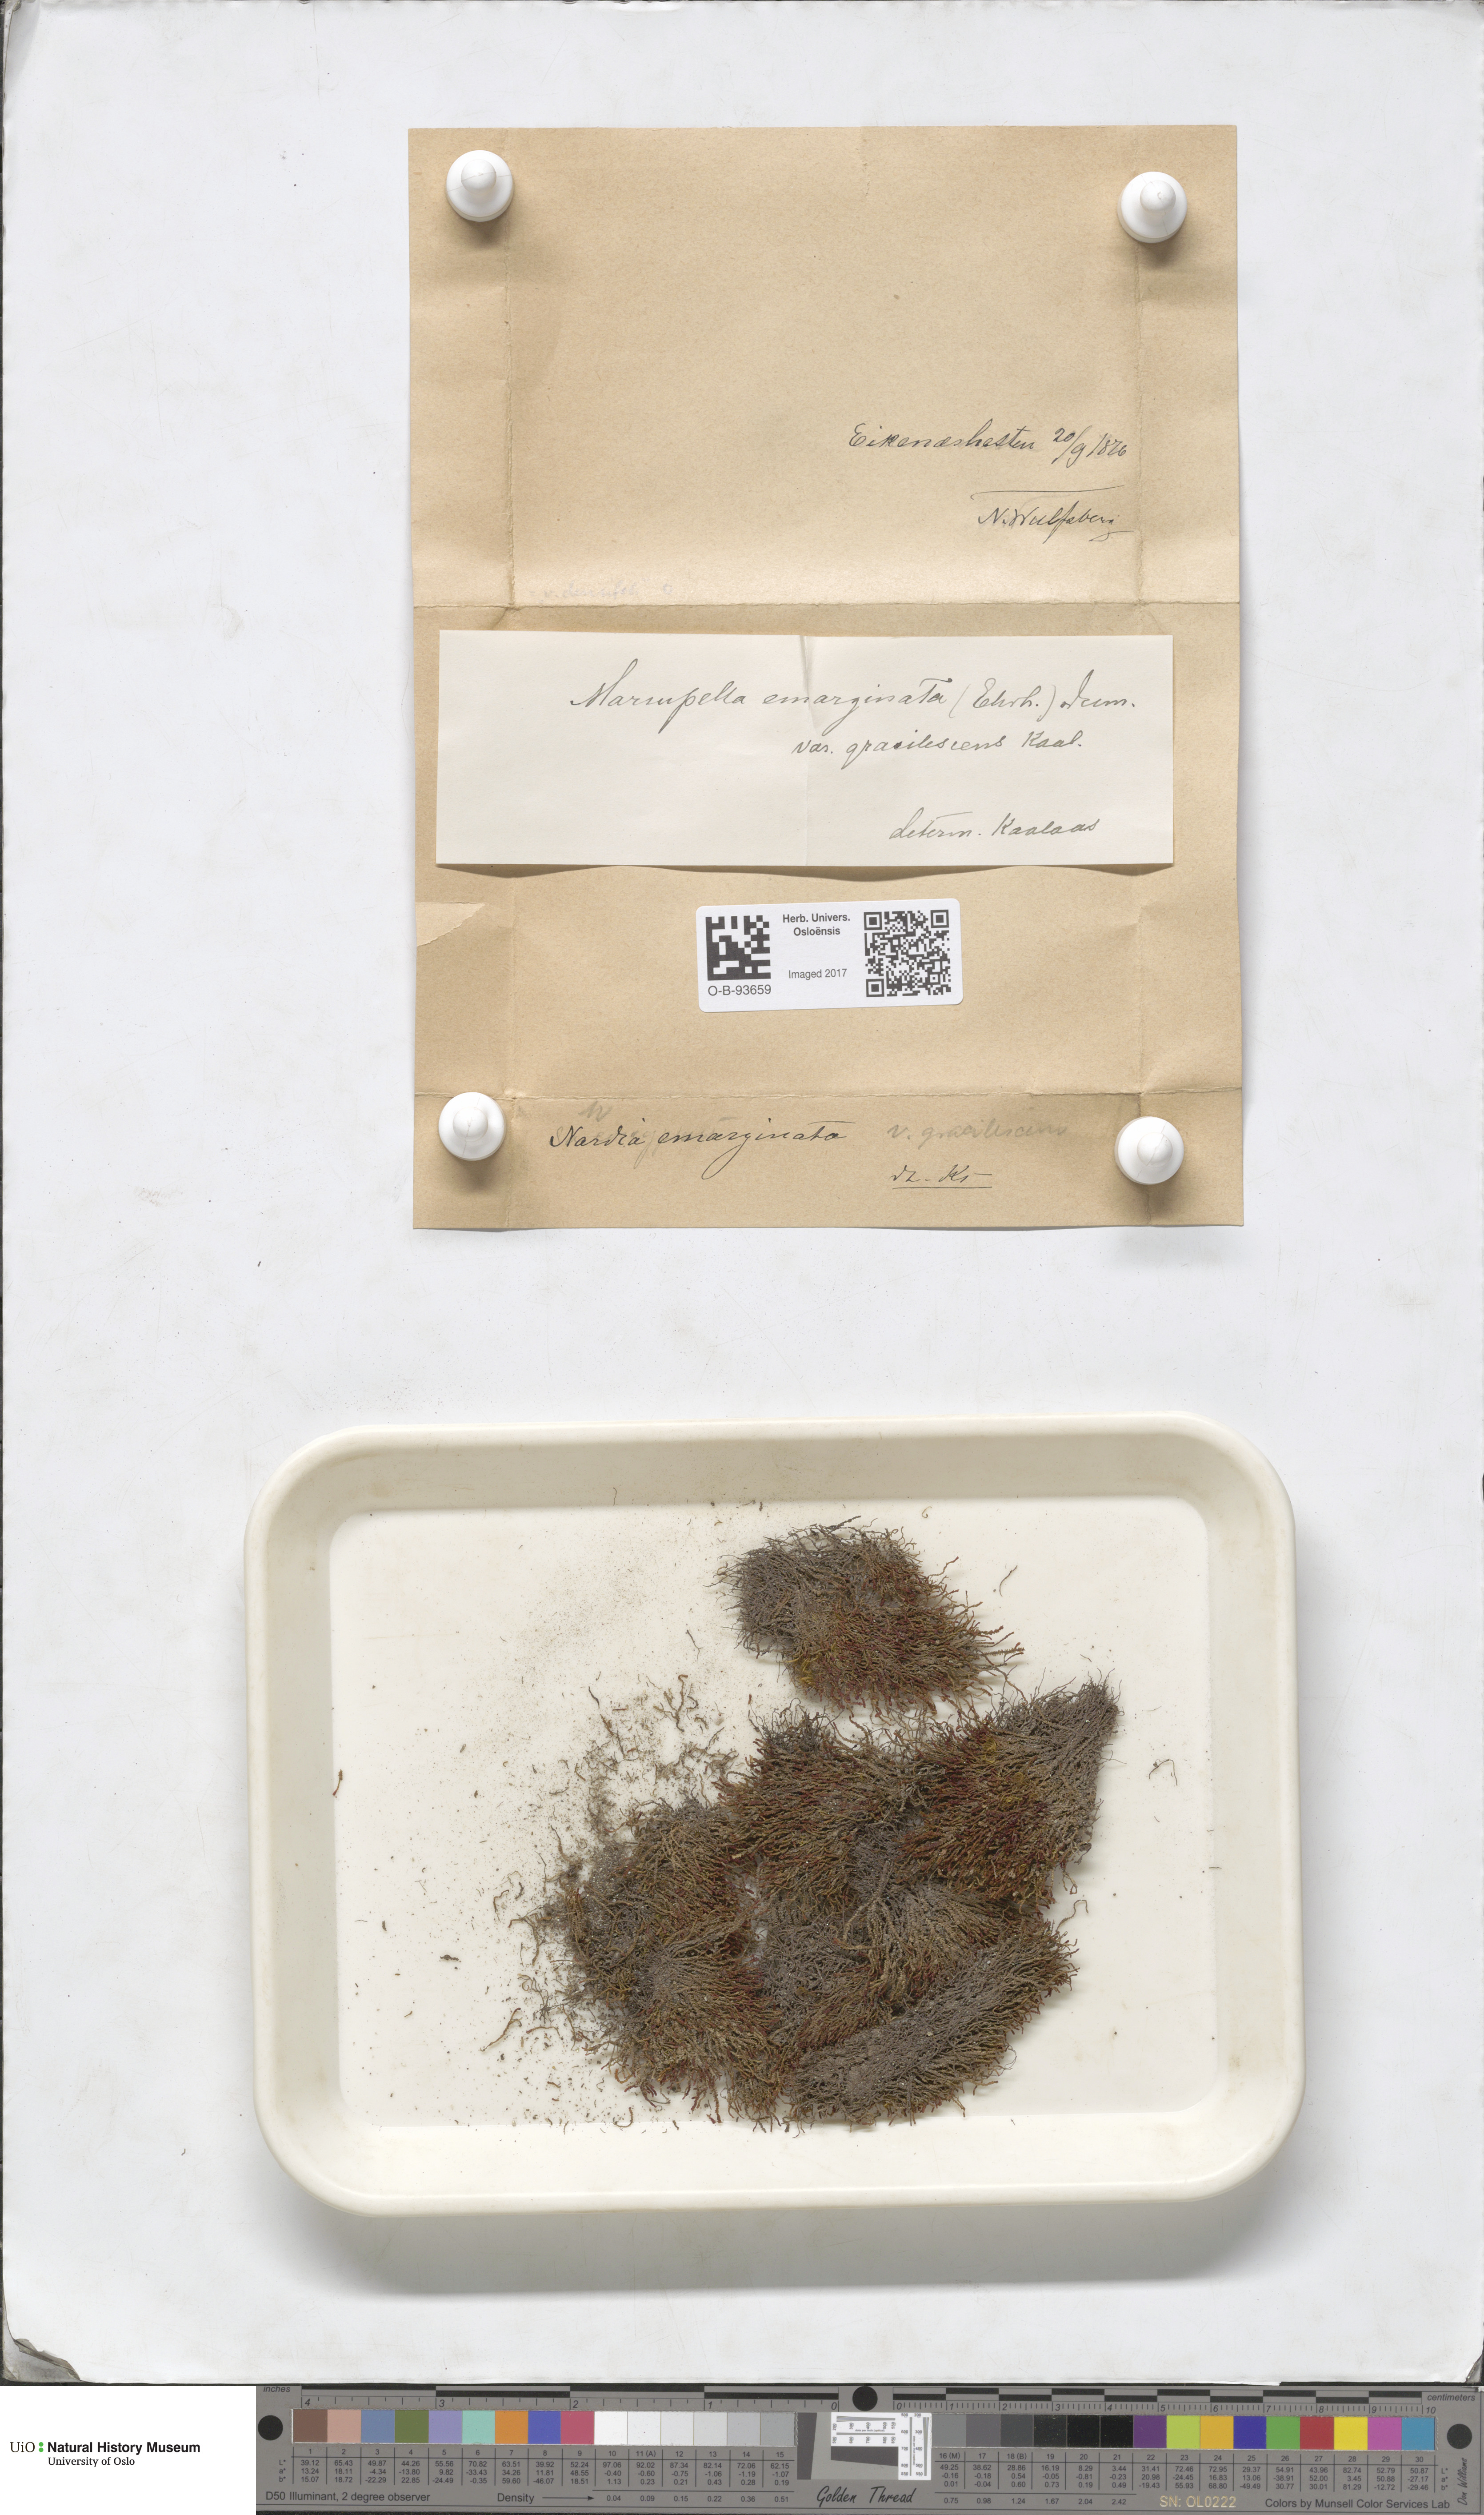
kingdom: Plantae
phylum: Marchantiophyta
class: Jungermanniopsida
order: Jungermanniales
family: Gymnomitriaceae
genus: Marsupella
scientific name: Marsupella emarginata
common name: Notched rustwort
